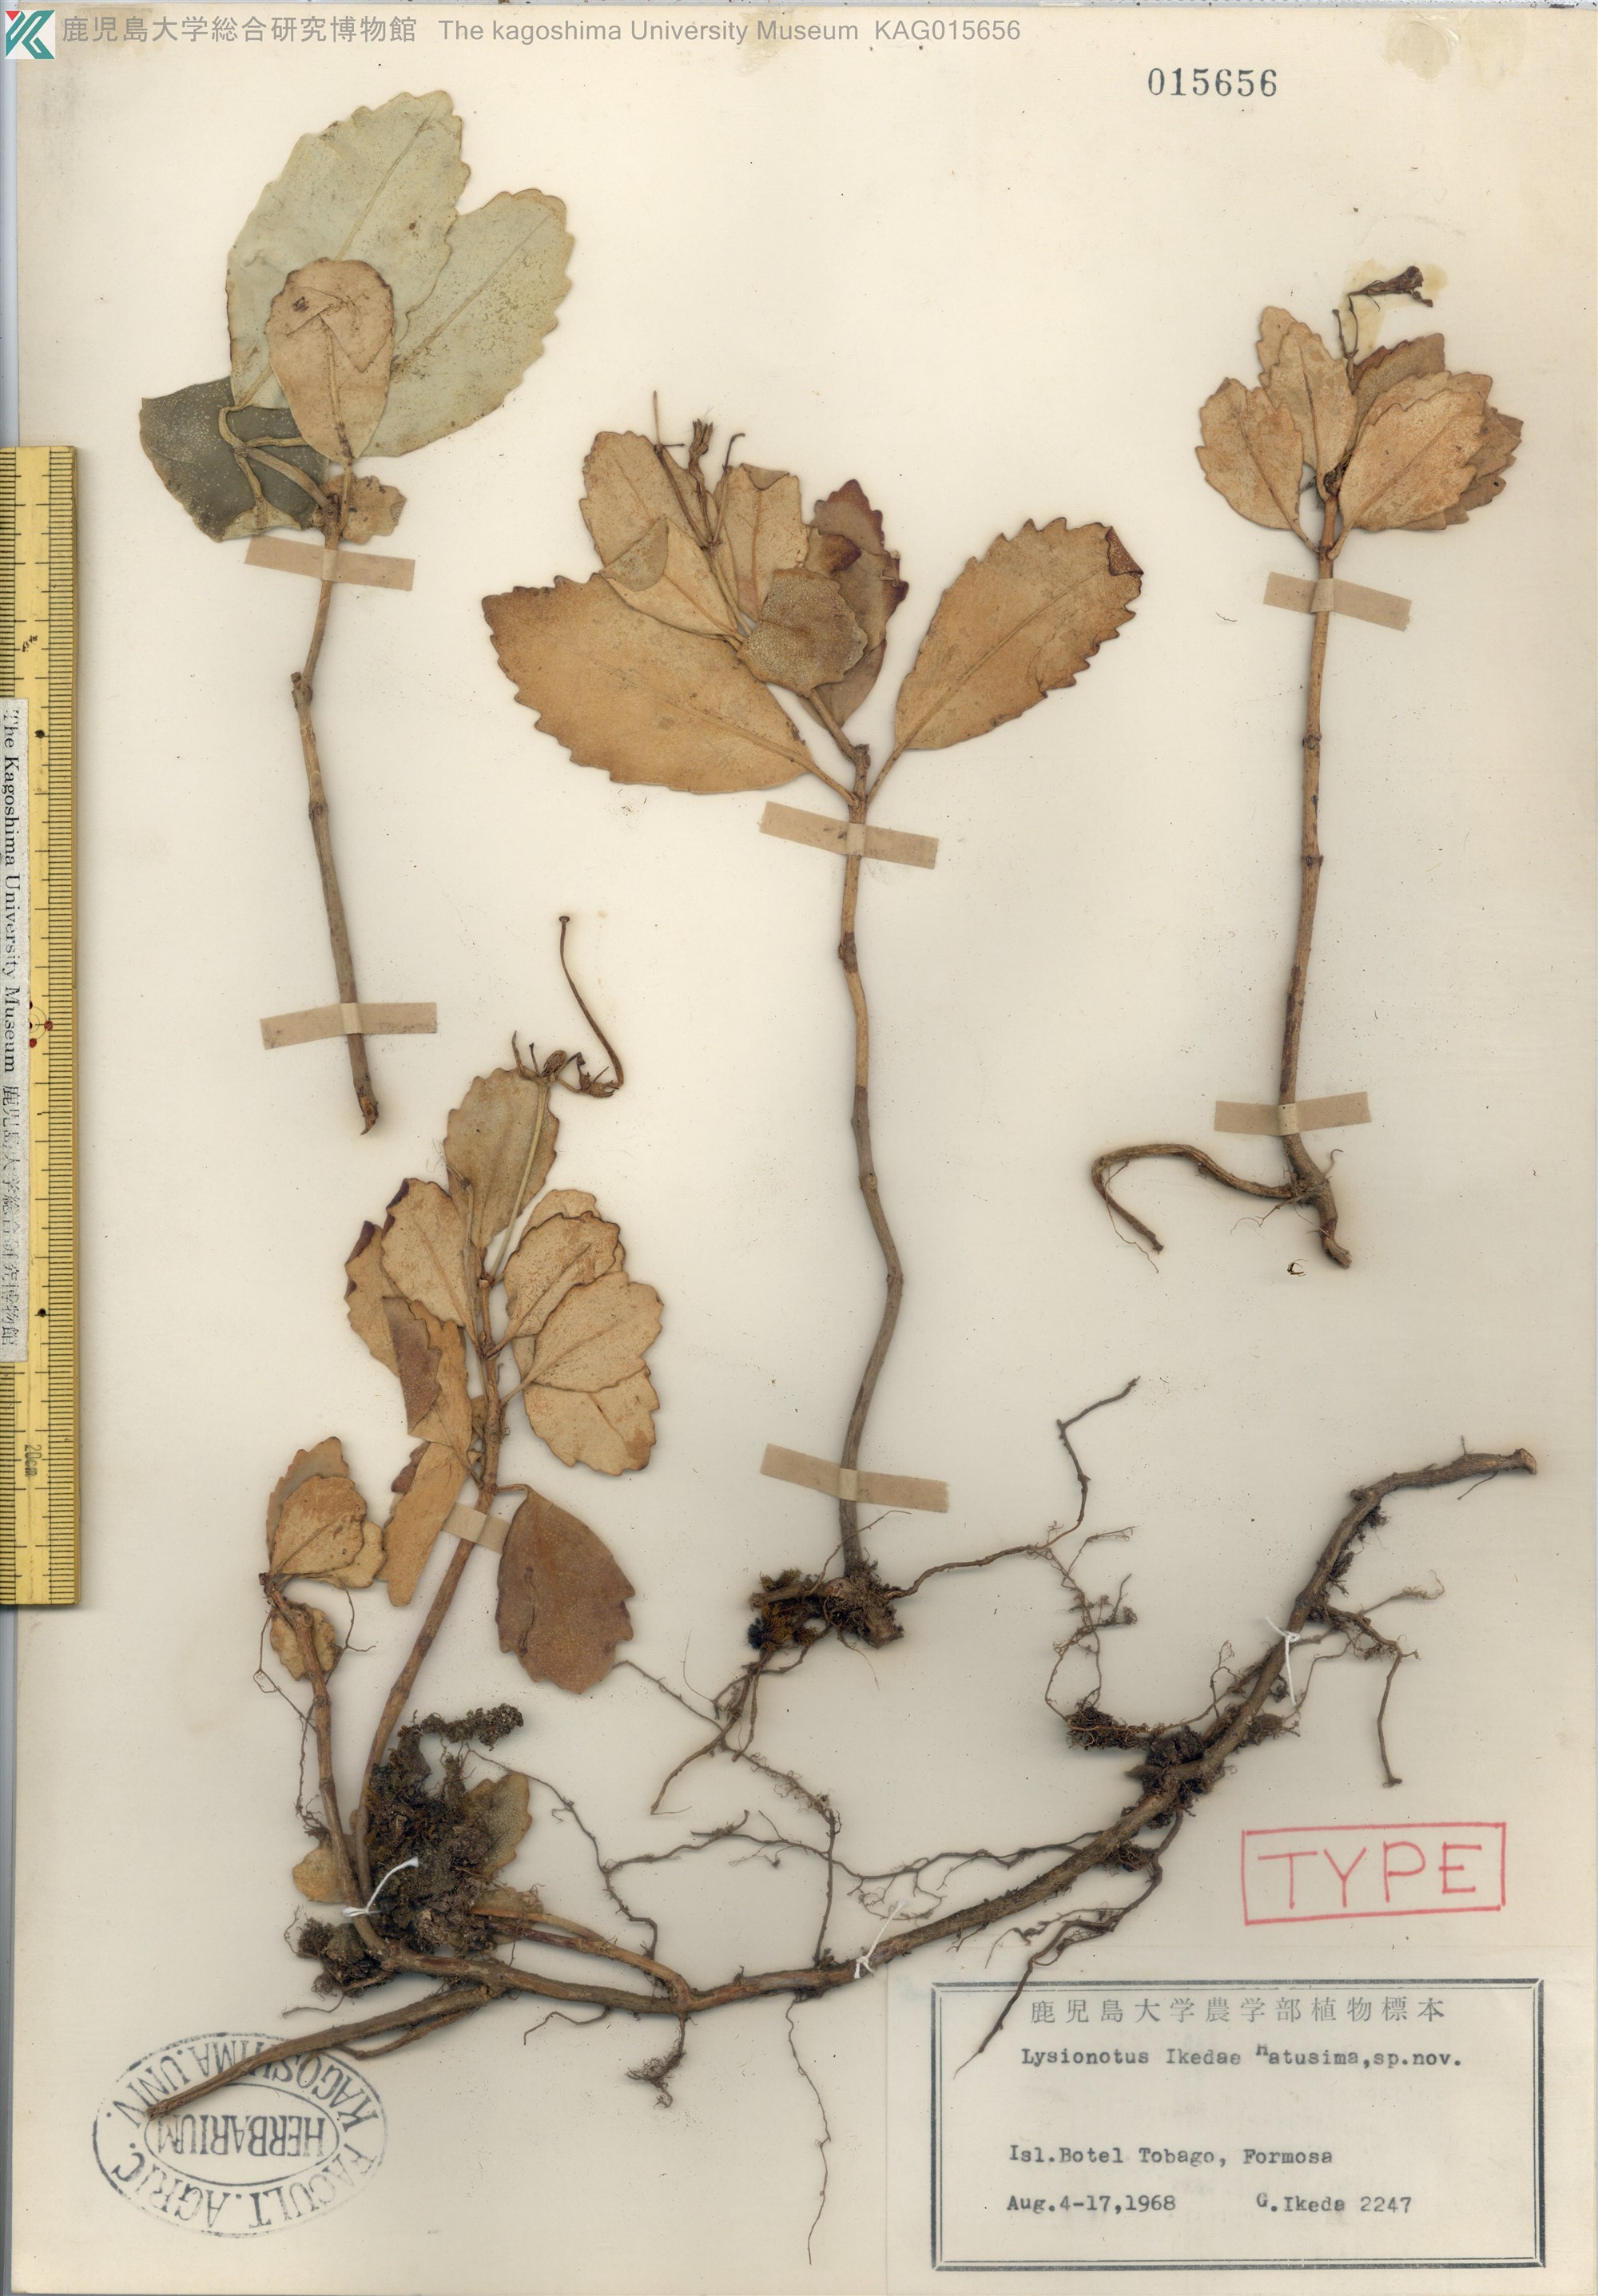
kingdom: Plantae
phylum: Tracheophyta
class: Magnoliopsida
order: Lamiales
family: Gesneriaceae
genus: Lysionotus
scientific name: Lysionotus pauciflorus
